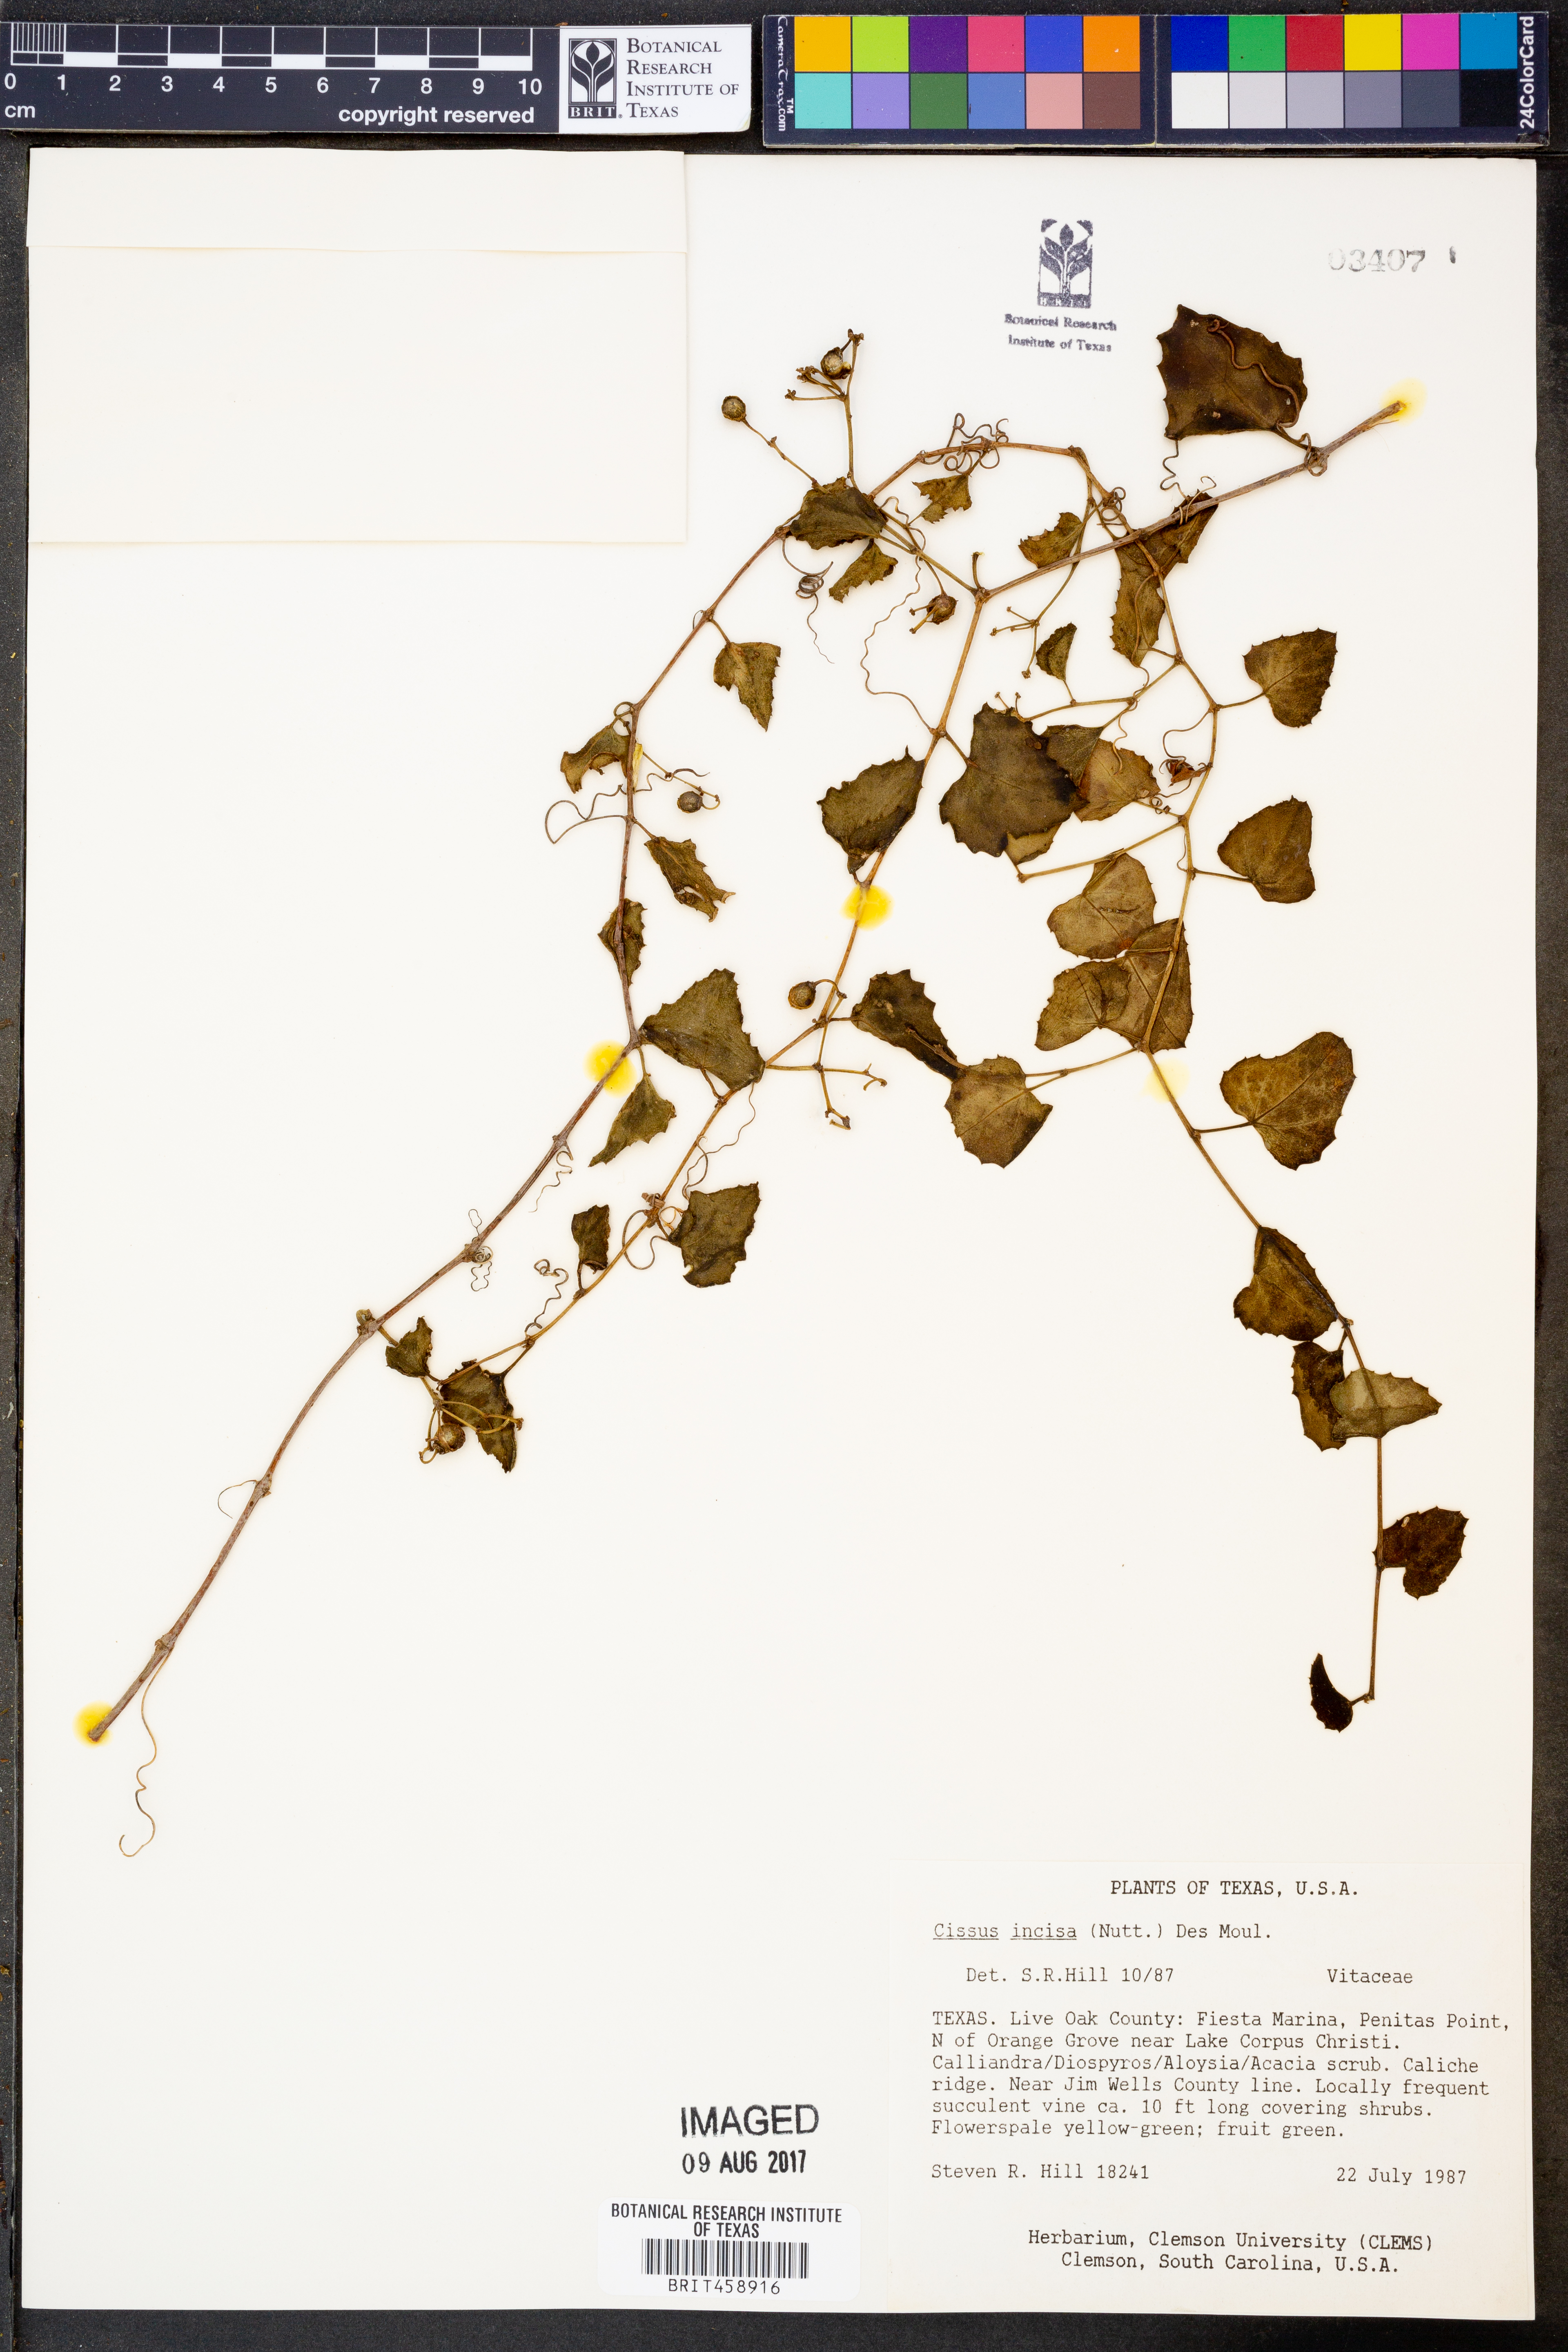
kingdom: Plantae
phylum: Tracheophyta
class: Magnoliopsida
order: Vitales
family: Vitaceae
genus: Cissus
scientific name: Cissus trifoliata
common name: Vine-sorrel
